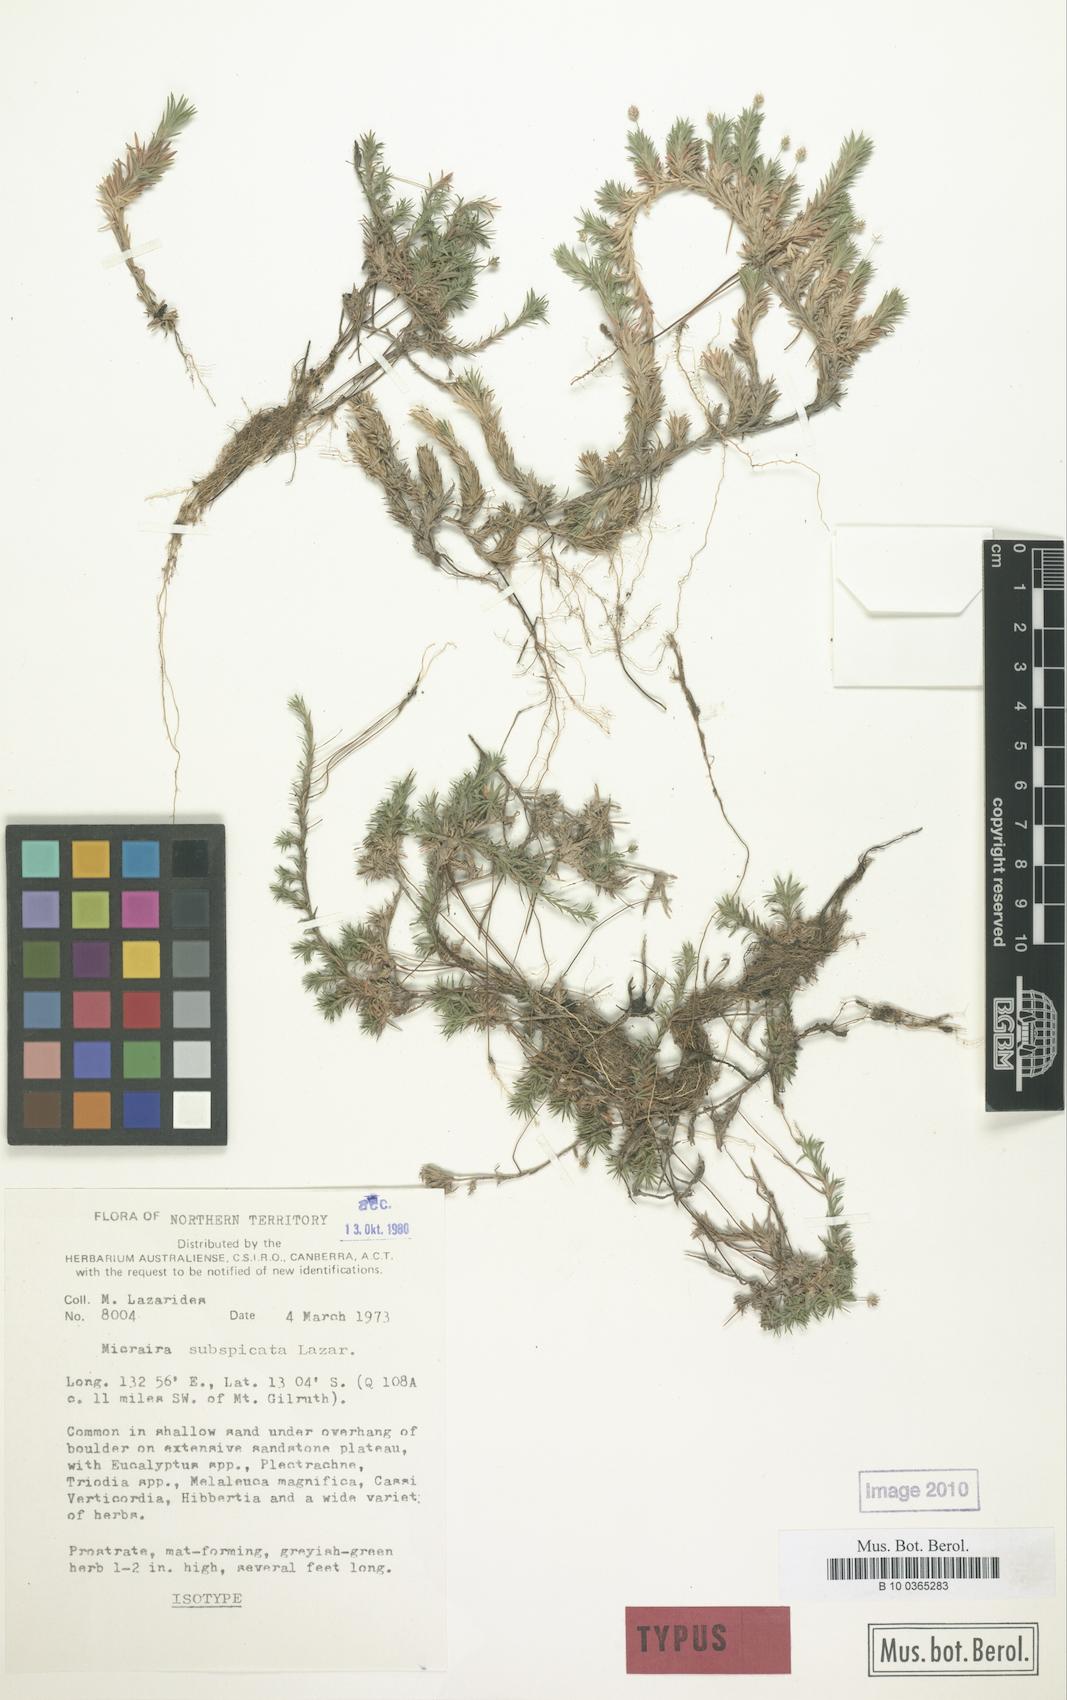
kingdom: Plantae
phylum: Tracheophyta
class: Liliopsida
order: Poales
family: Poaceae
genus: Micraira
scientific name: Micraira subspicata
